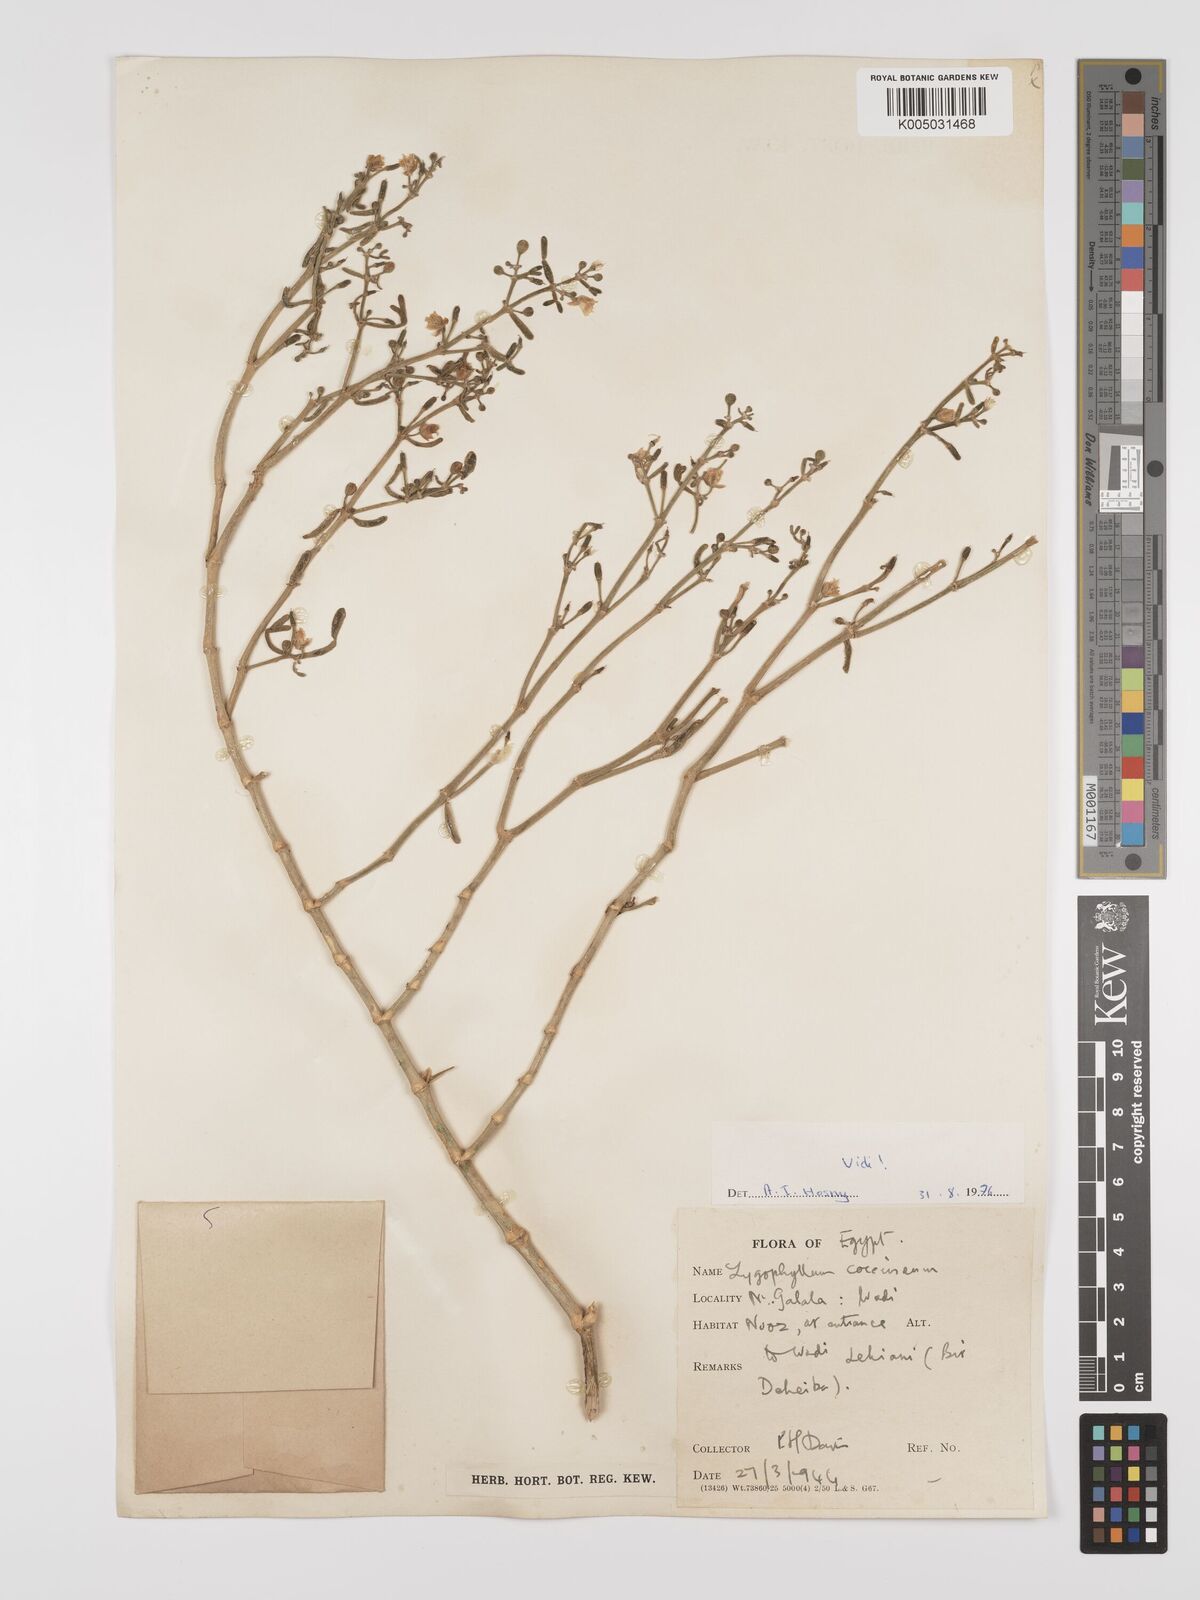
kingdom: Plantae
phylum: Tracheophyta
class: Magnoliopsida
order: Zygophyllales
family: Zygophyllaceae
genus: Tetraena
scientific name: Tetraena coccinea
